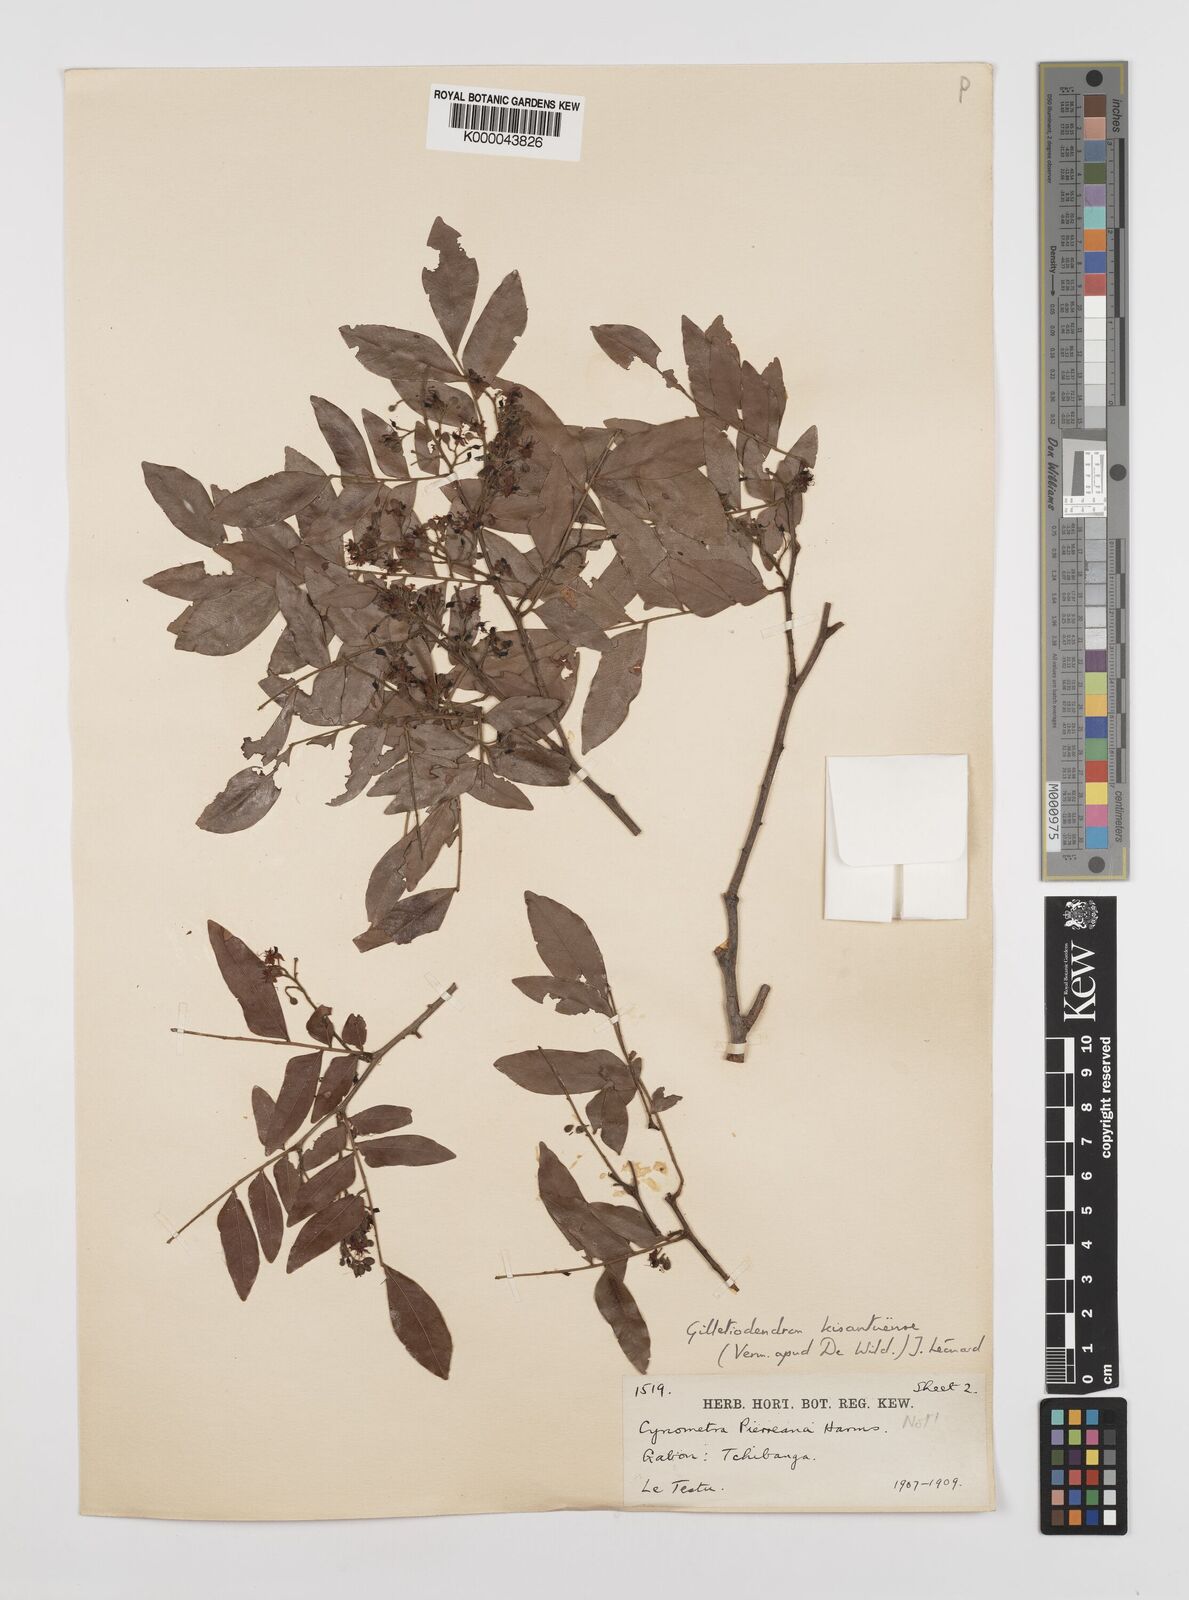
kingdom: Plantae
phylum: Tracheophyta
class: Magnoliopsida
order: Fabales
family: Fabaceae
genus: Guibourtia
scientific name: Guibourtia
